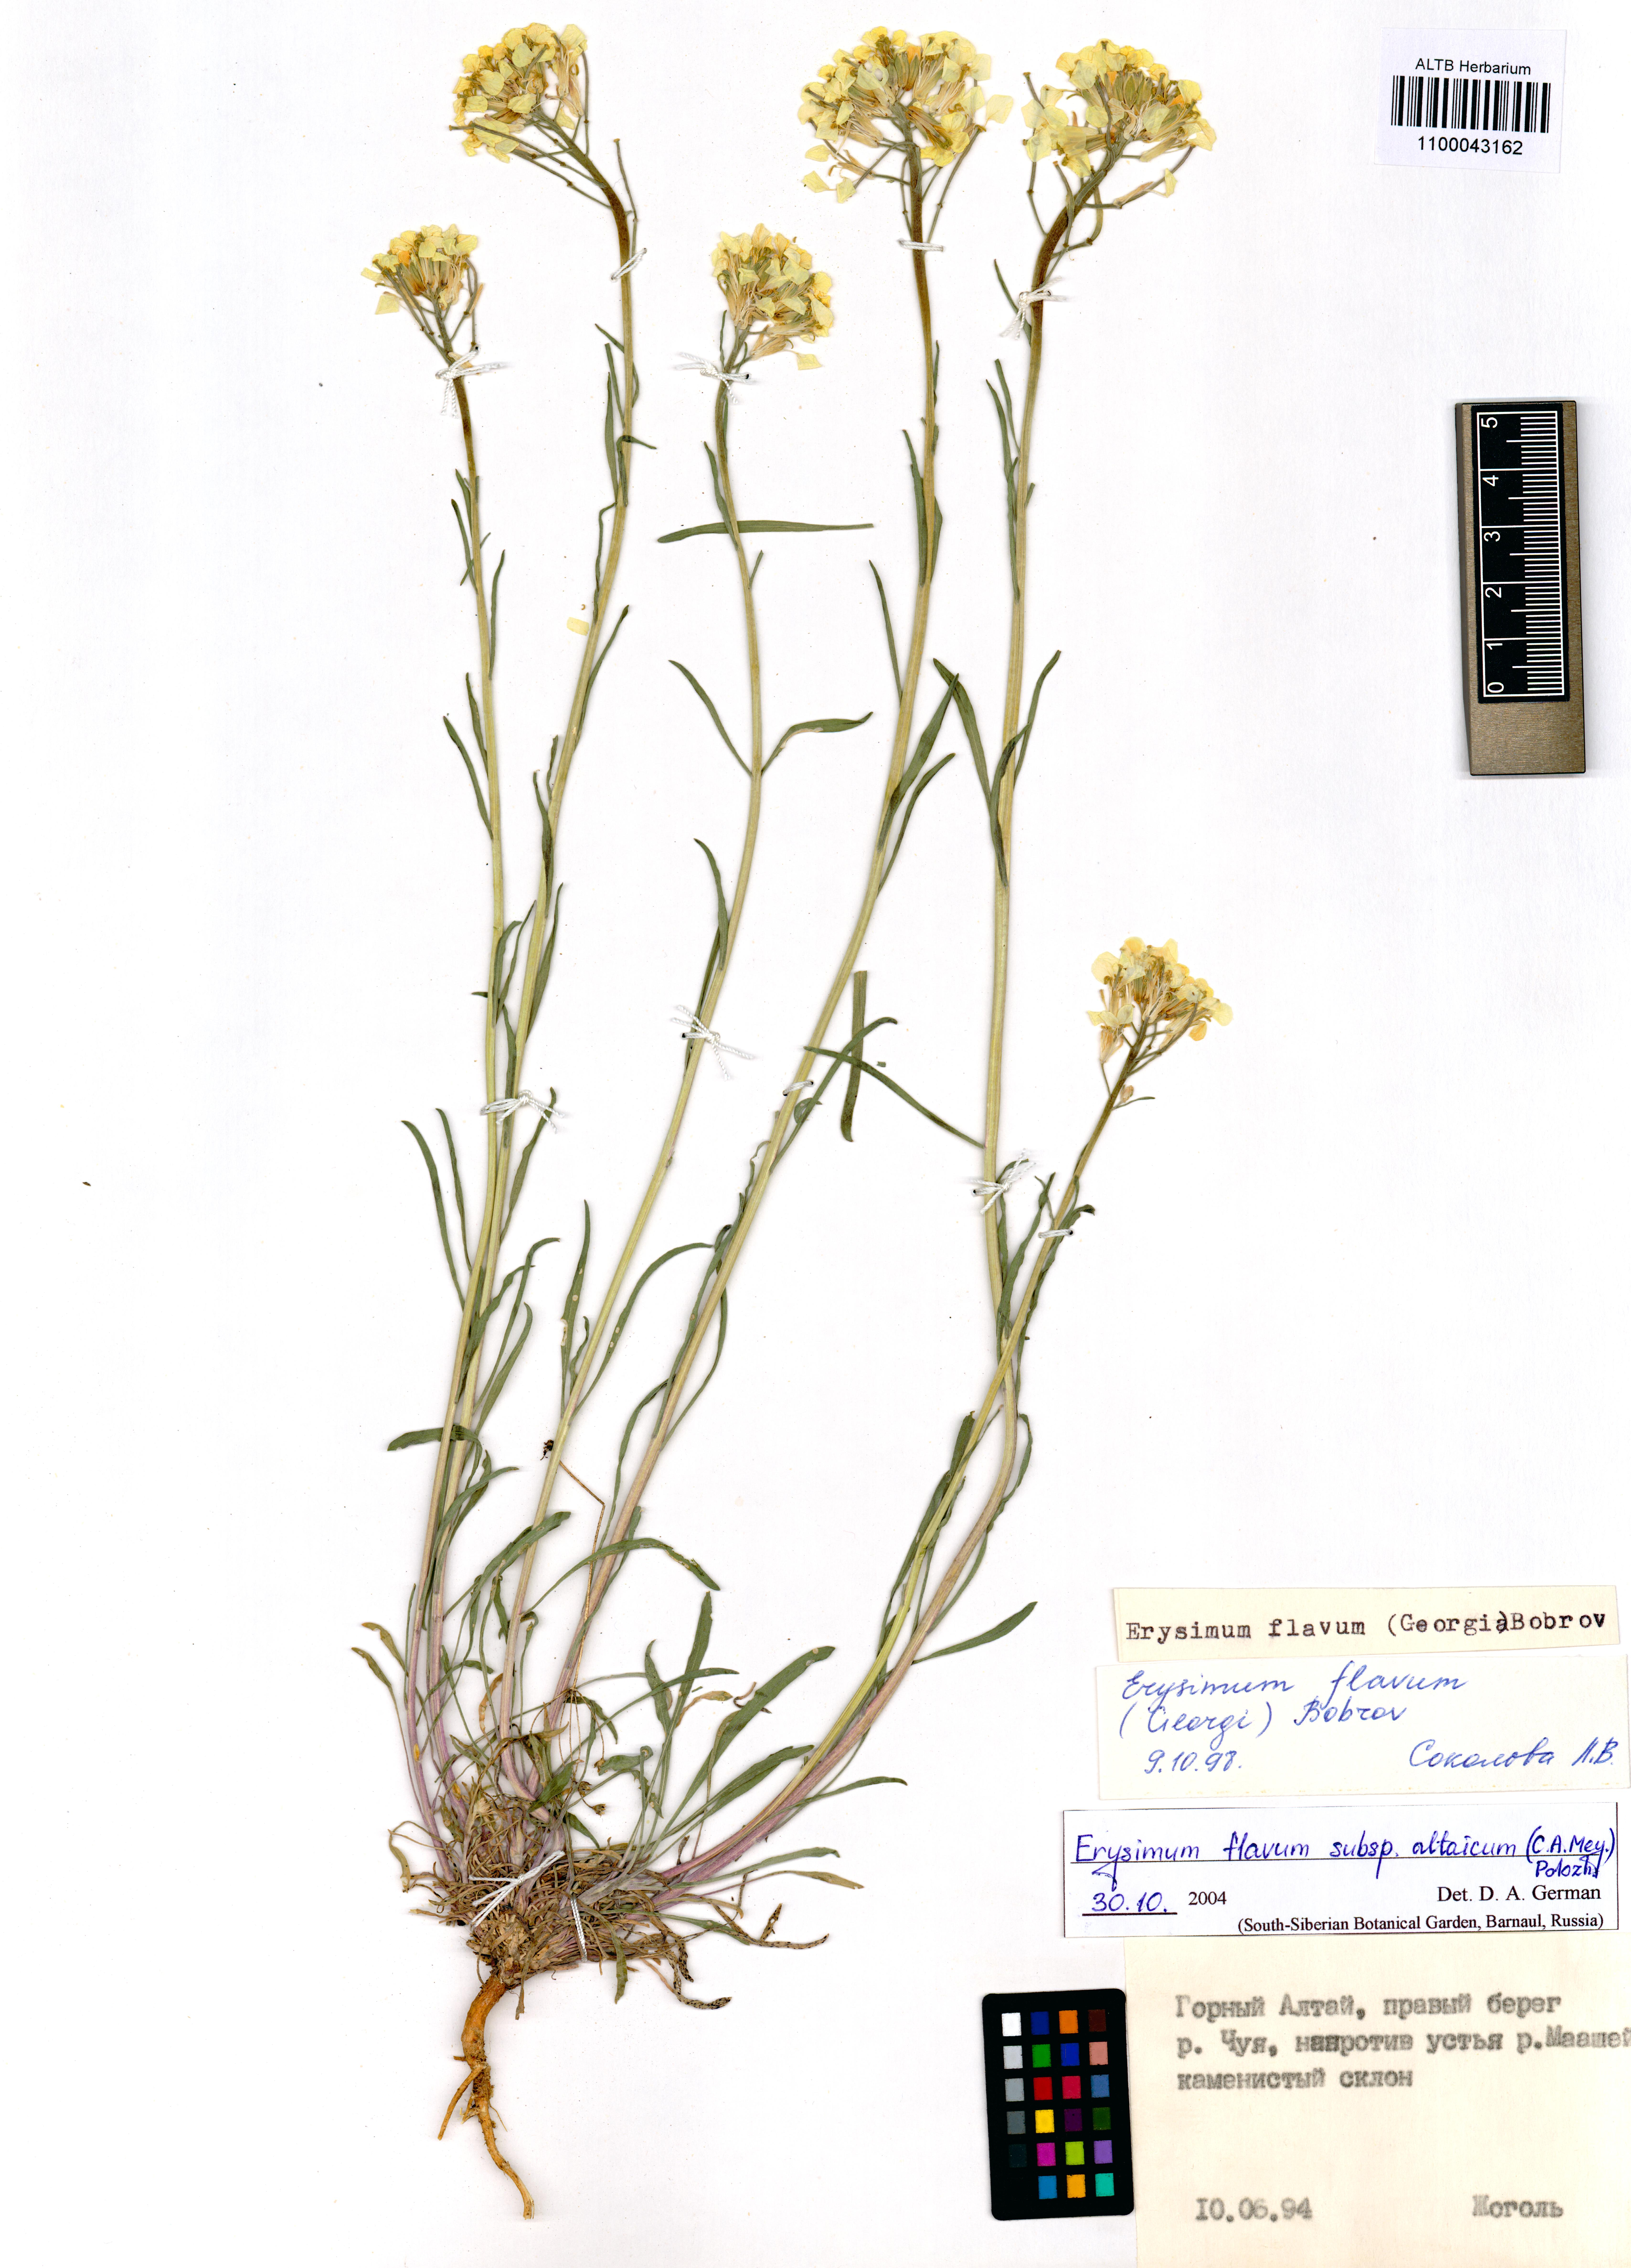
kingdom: Plantae
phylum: Tracheophyta
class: Magnoliopsida
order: Brassicales
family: Brassicaceae
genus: Erysimum
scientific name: Erysimum flavum
